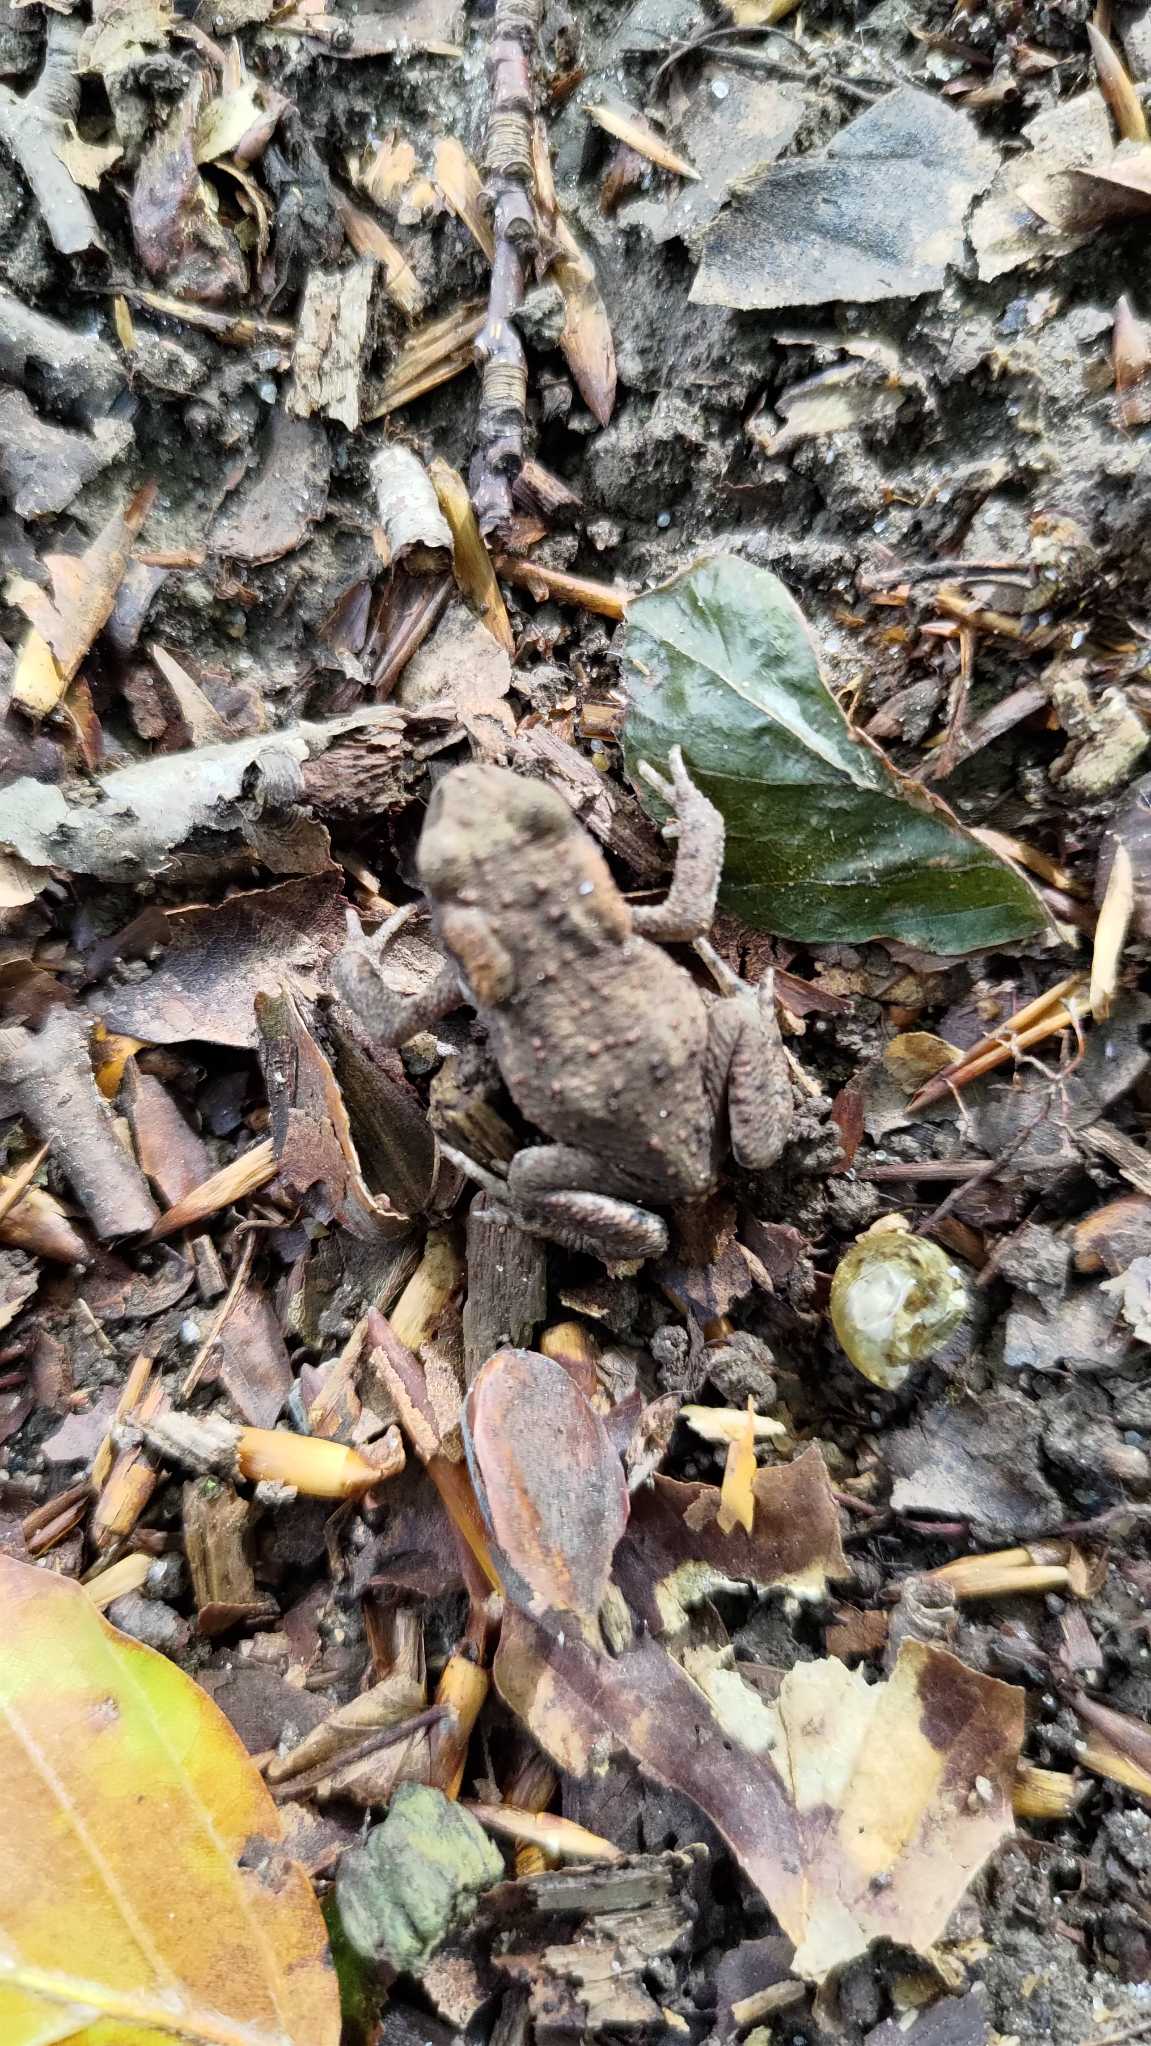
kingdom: Animalia
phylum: Chordata
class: Amphibia
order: Anura
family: Bufonidae
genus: Bufo
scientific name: Bufo bufo
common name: Skrubtudse
